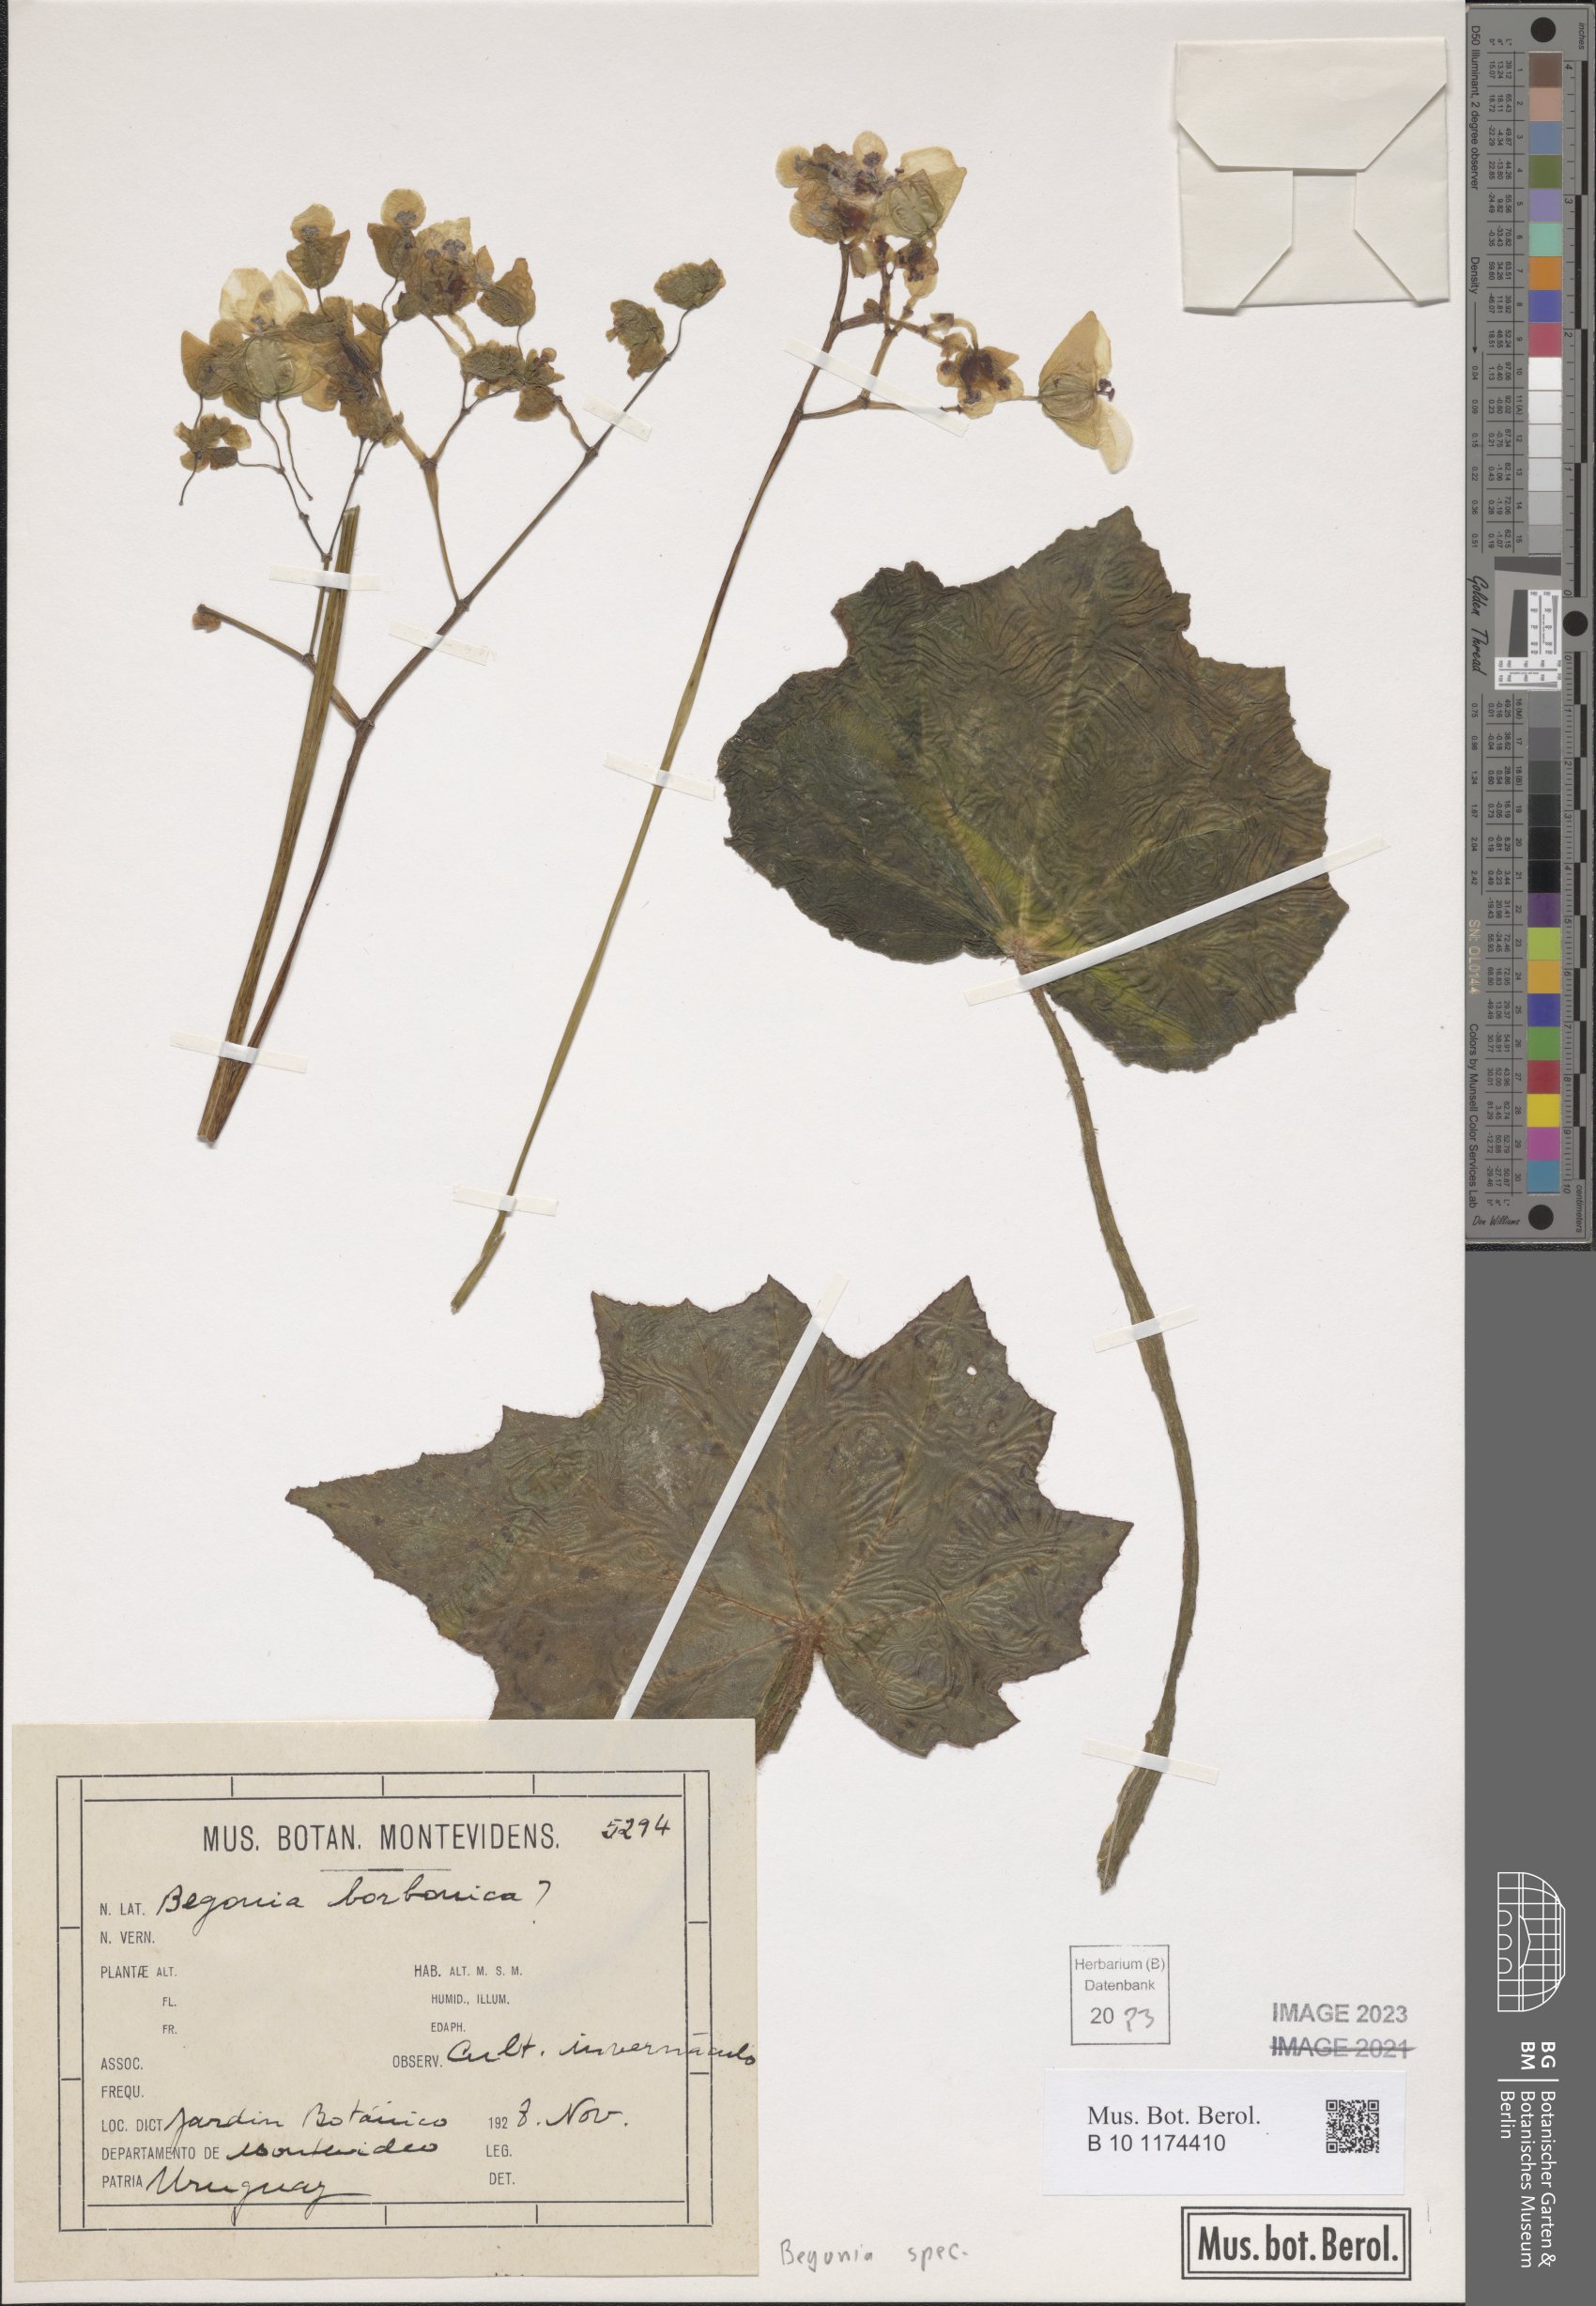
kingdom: Plantae
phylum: Tracheophyta
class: Magnoliopsida
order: Cucurbitales
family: Begoniaceae
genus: Begonia
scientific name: Begonia
